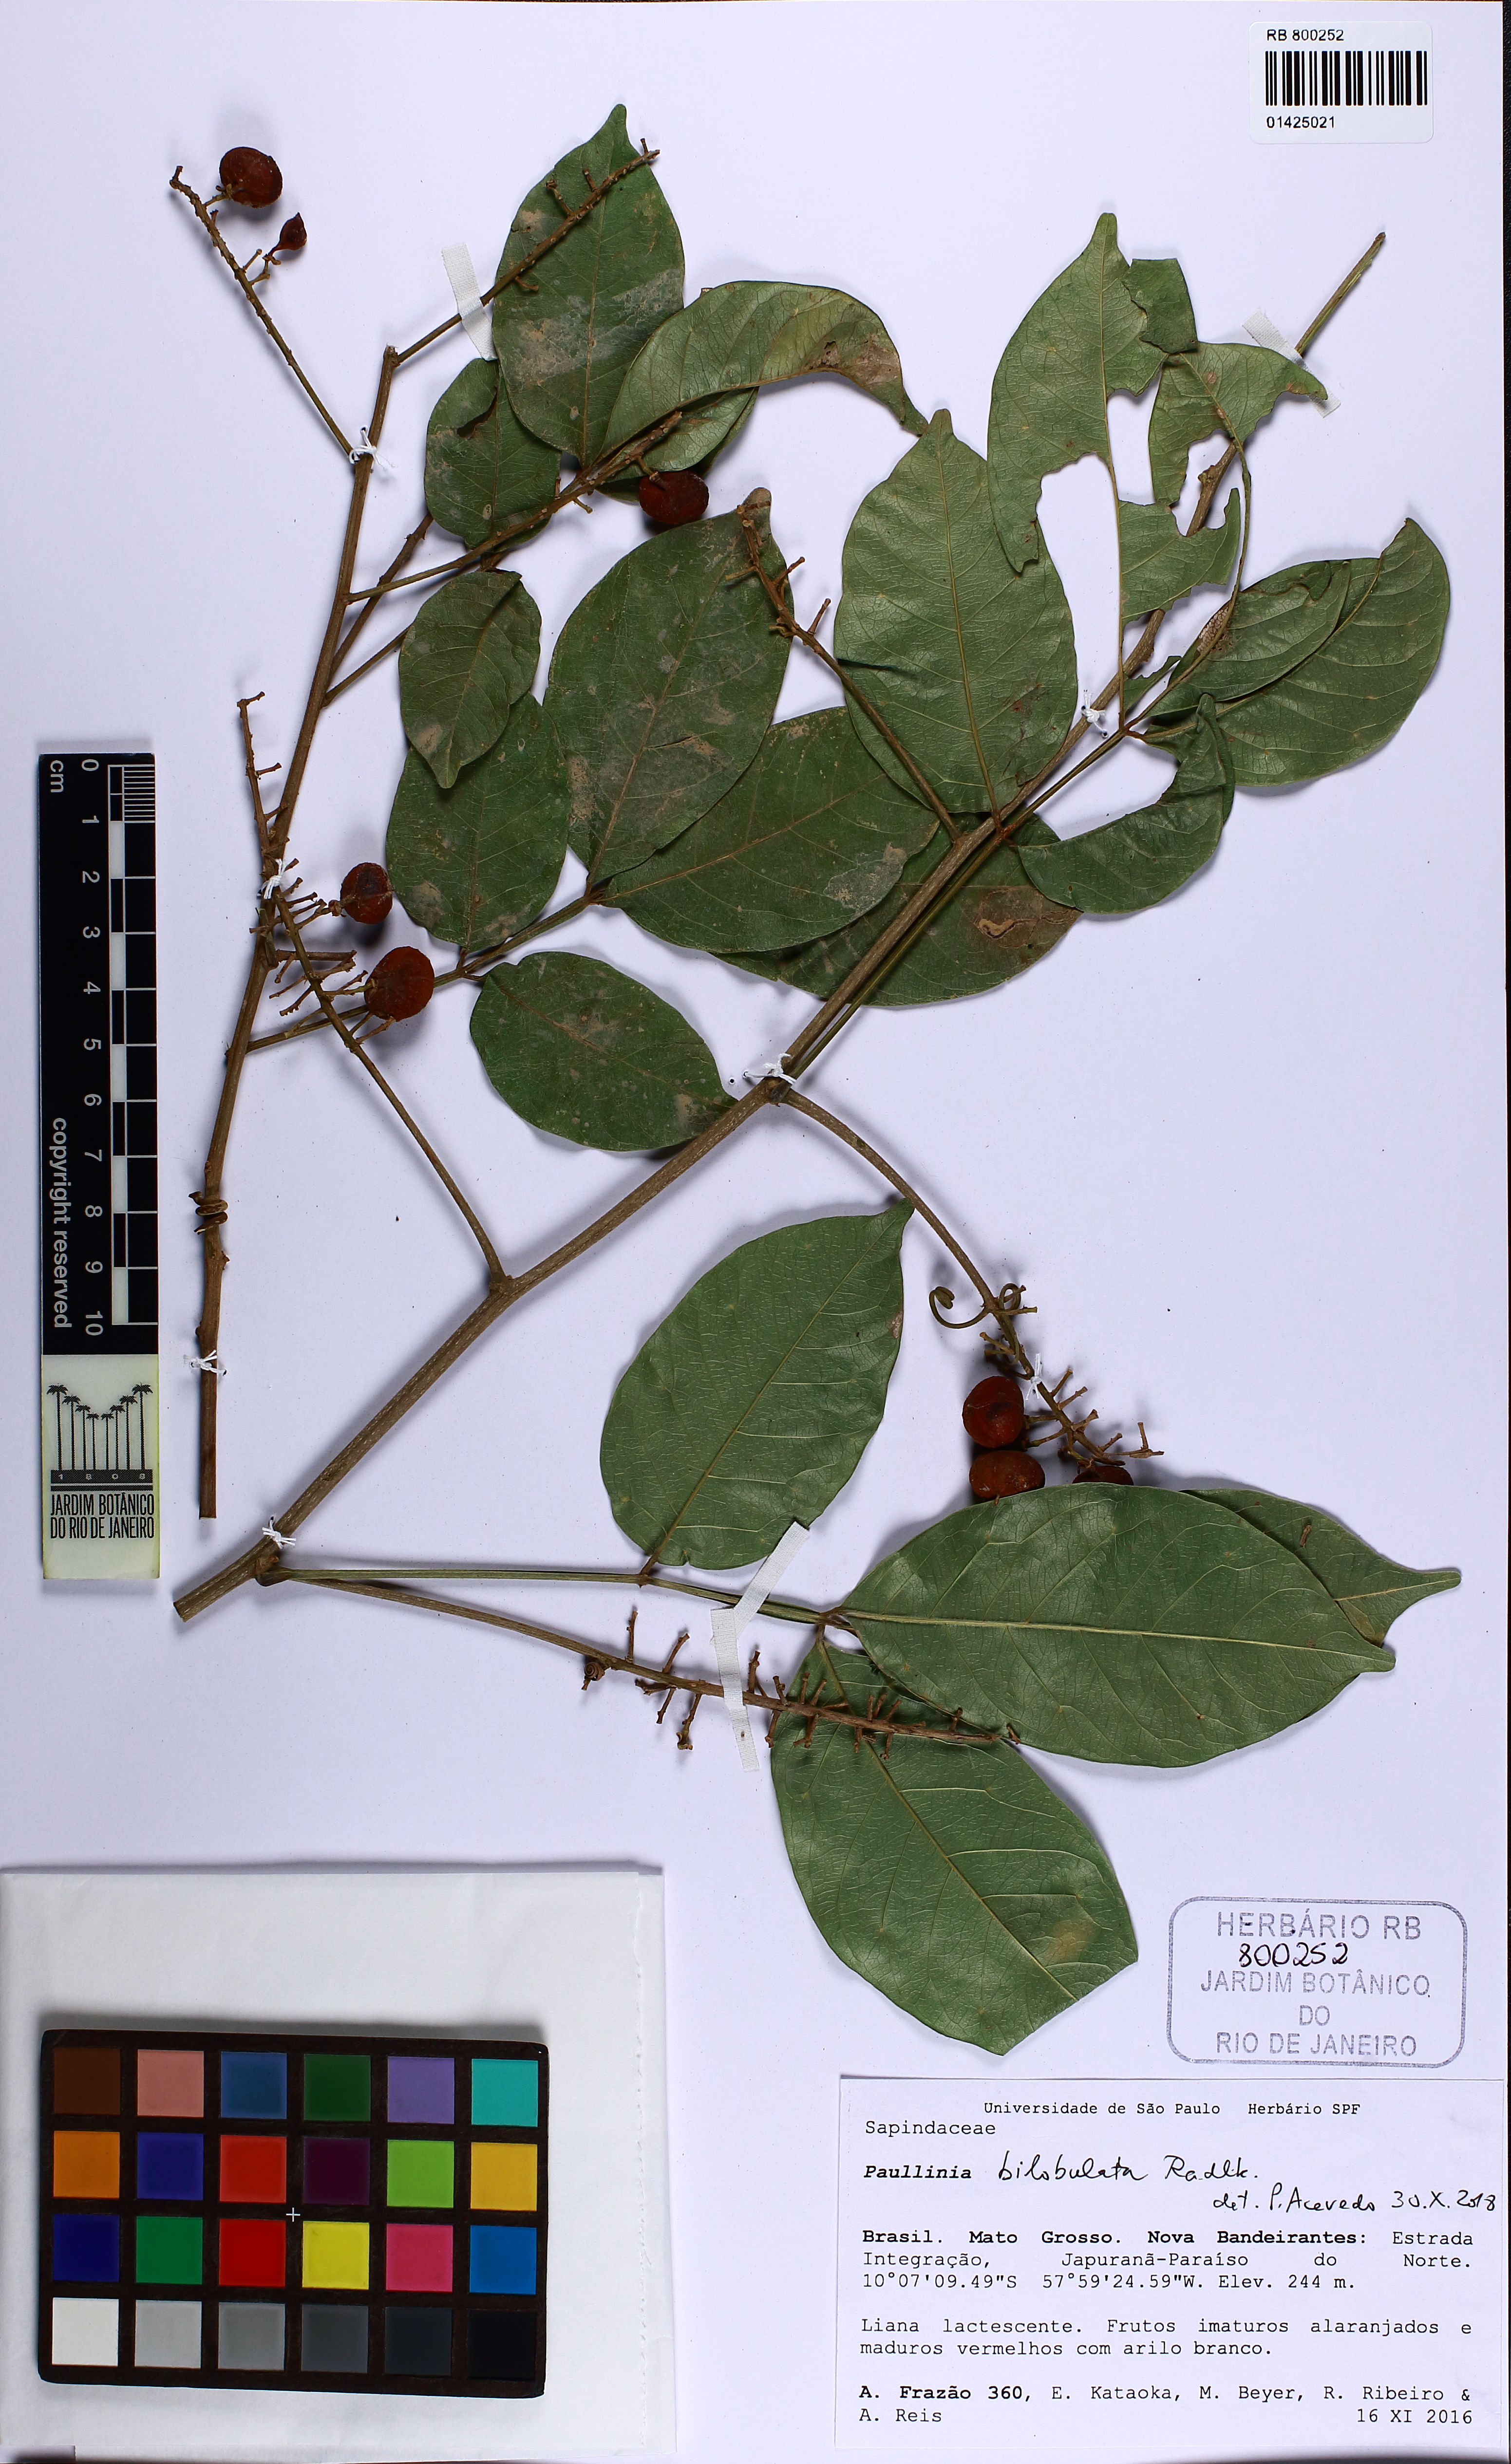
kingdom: Plantae
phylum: Tracheophyta
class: Magnoliopsida
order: Sapindales
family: Sapindaceae
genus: Paullinia
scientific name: Paullinia bilobulata
